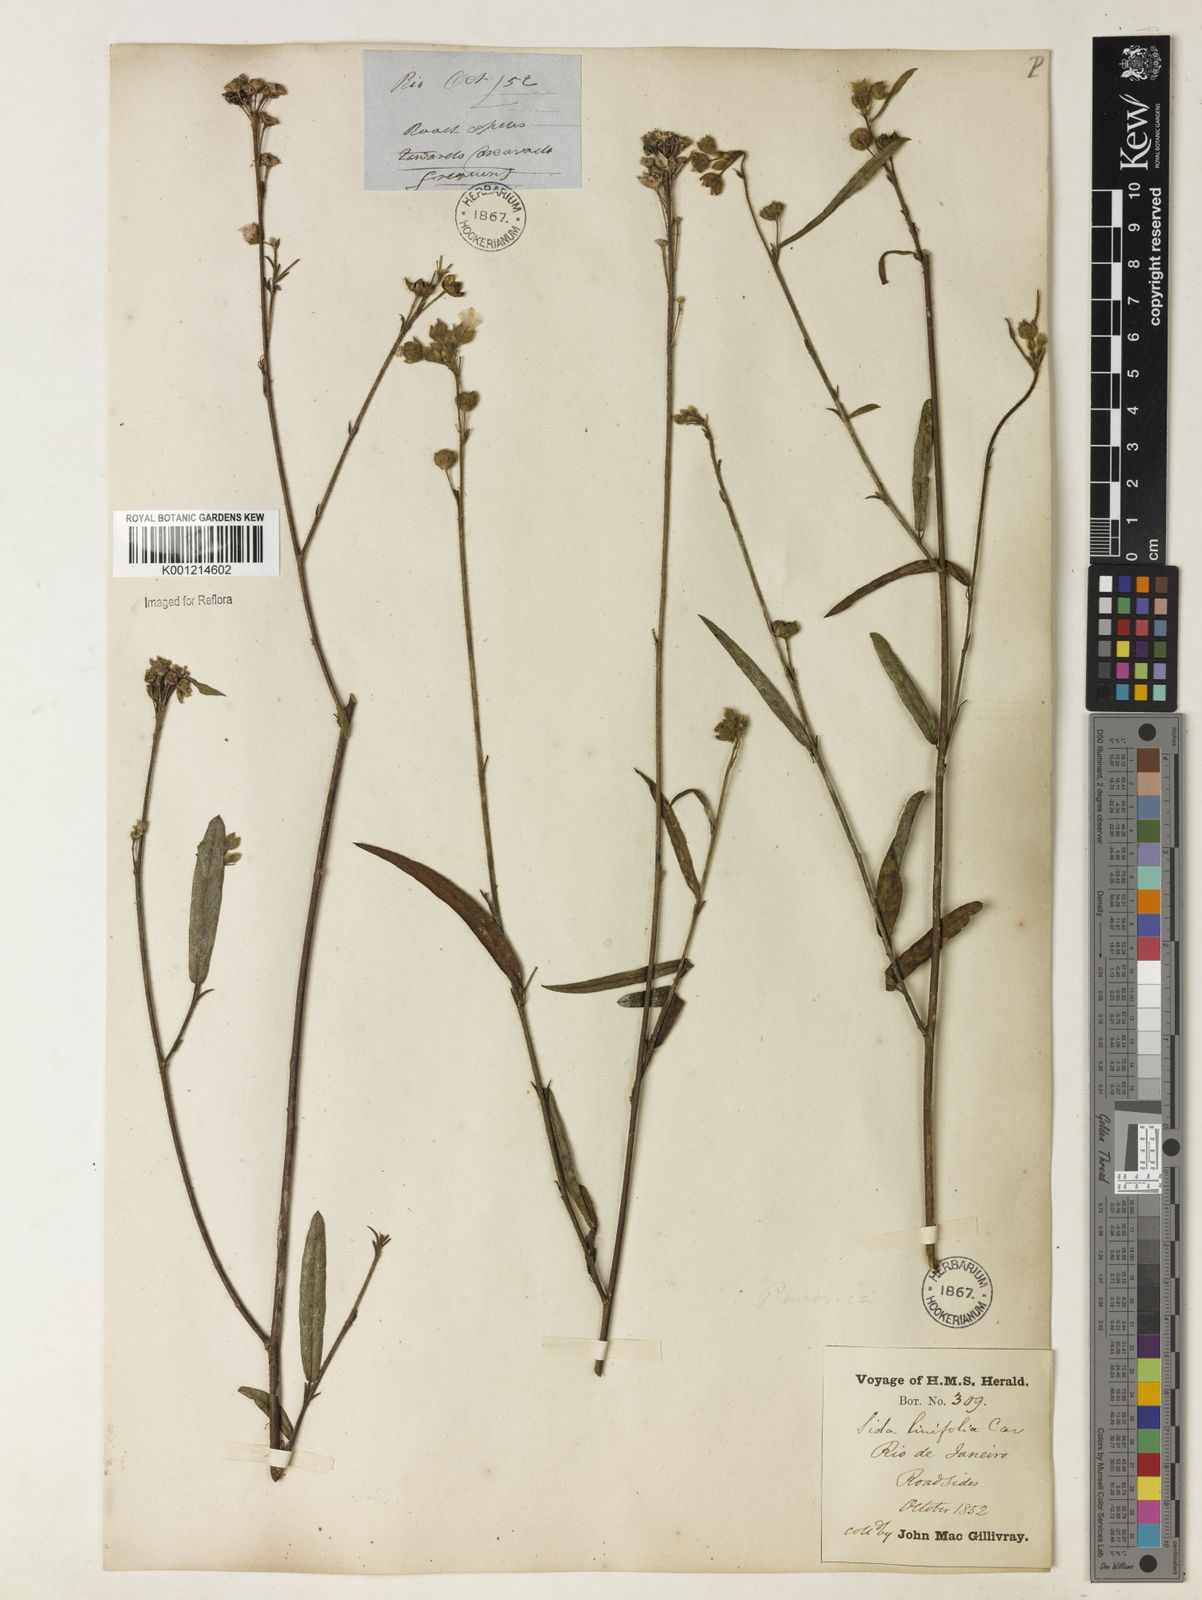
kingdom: Plantae
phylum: Tracheophyta
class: Magnoliopsida
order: Malvales
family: Malvaceae
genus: Sida
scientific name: Sida linifolia
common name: Flaxleaf fanpetals
